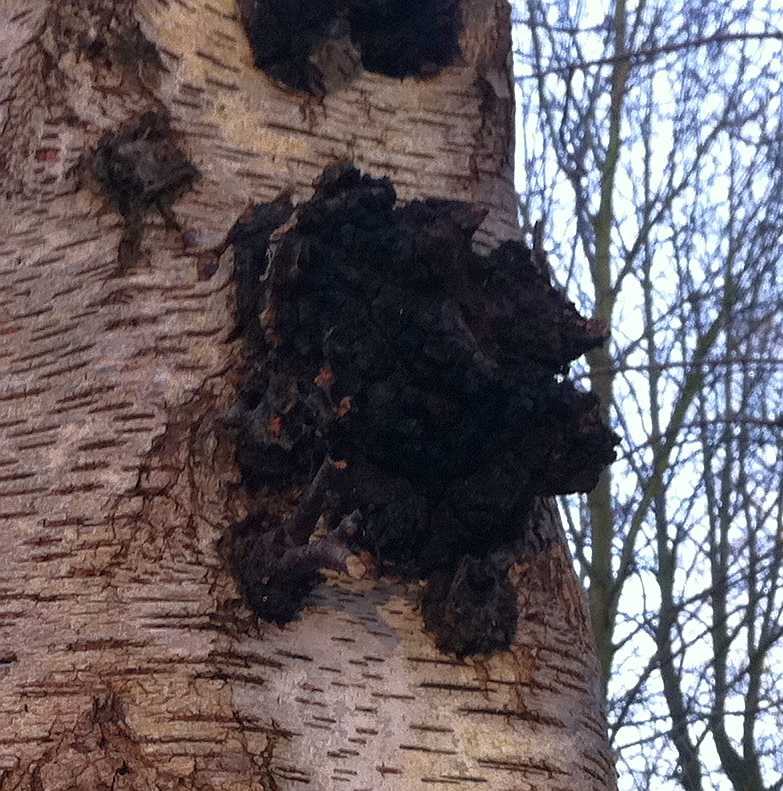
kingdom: Fungi
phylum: Basidiomycota
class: Agaricomycetes
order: Hymenochaetales
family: Hymenochaetaceae
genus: Inonotus
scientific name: Inonotus obliquus
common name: birke-spejlporesvamp
